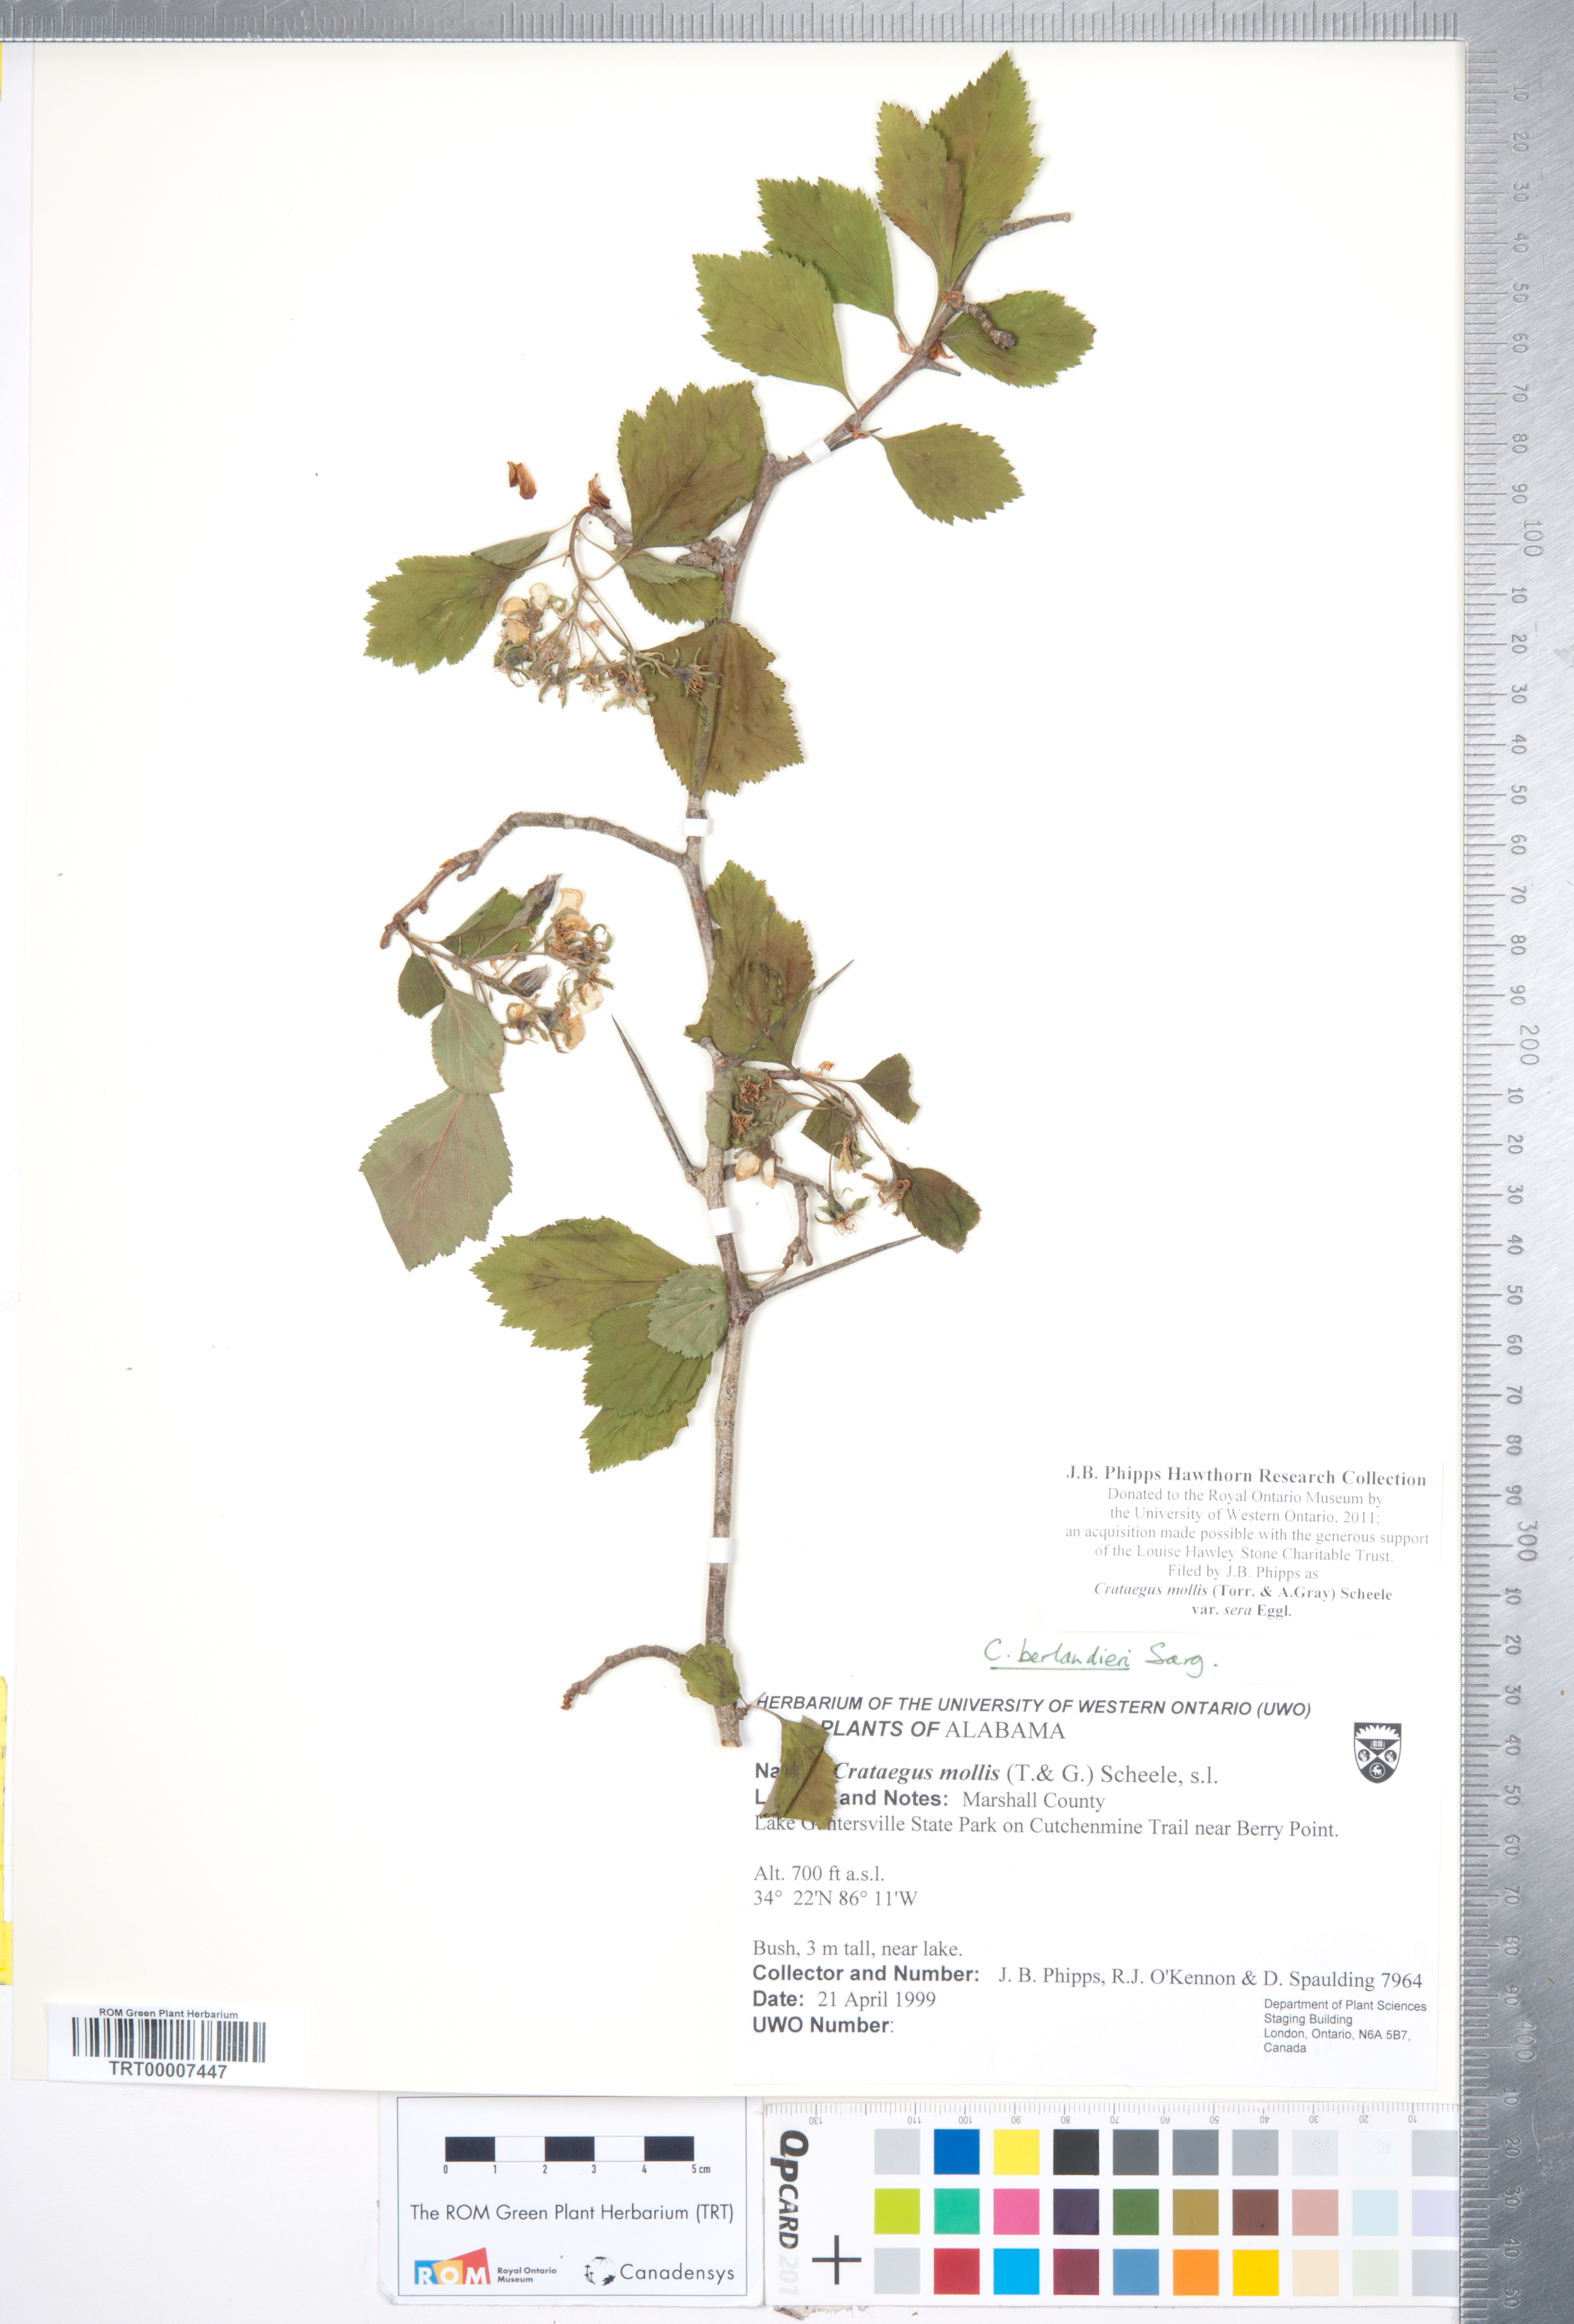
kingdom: Plantae
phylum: Tracheophyta
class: Magnoliopsida
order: Rosales
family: Rosaceae
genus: Crataegus
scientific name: Crataegus mollis
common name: Downy hawthorn
